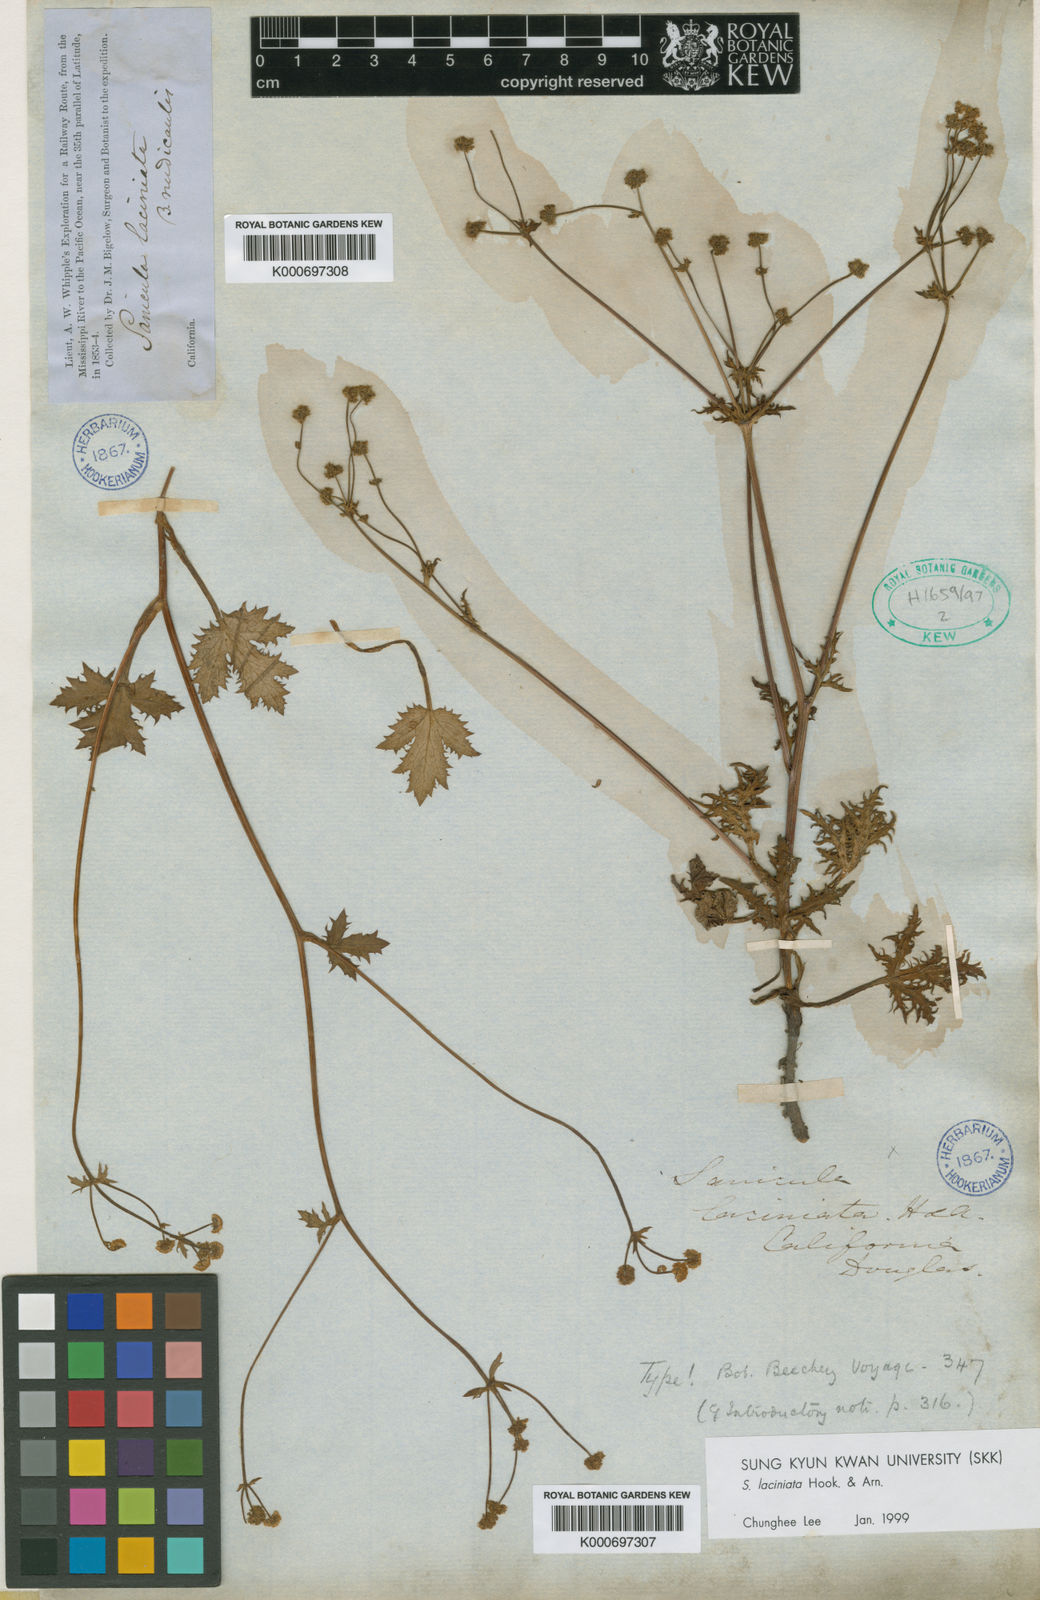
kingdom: Plantae
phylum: Tracheophyta
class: Magnoliopsida
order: Apiales
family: Apiaceae
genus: Sanicula
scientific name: Sanicula laciniata
